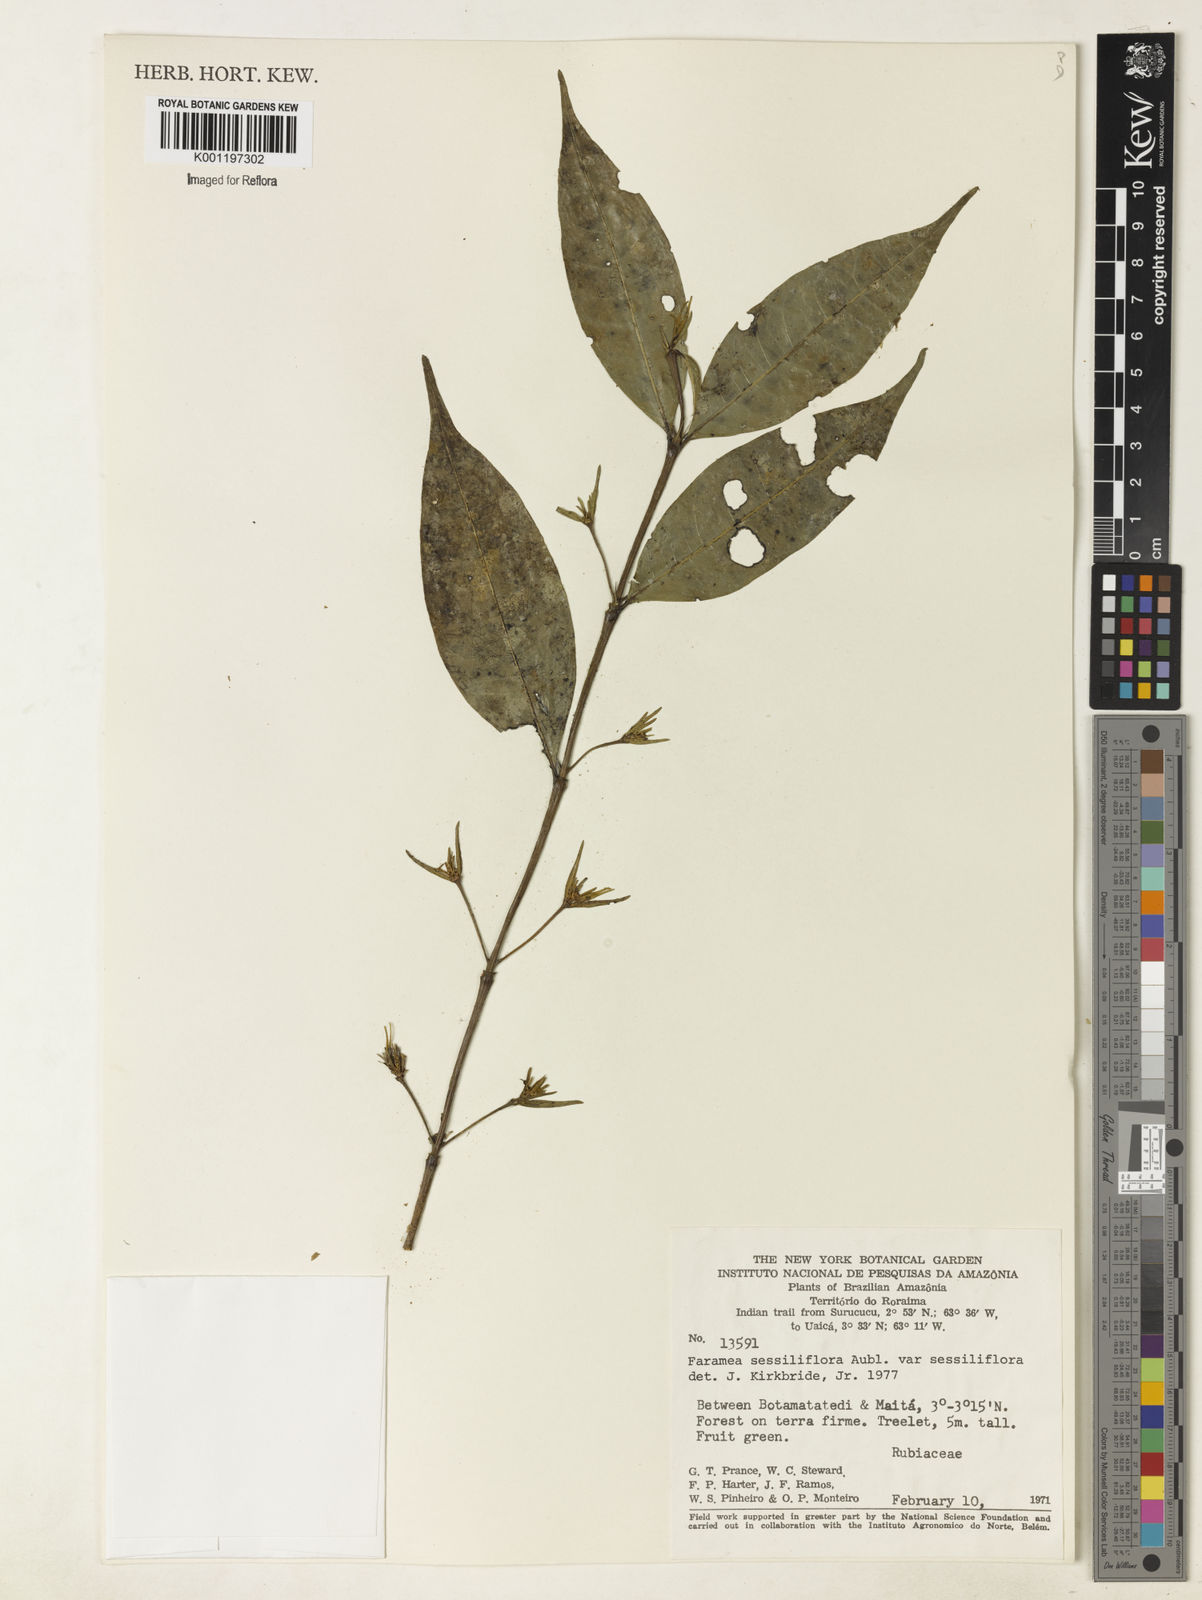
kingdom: Plantae
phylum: Tracheophyta
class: Magnoliopsida
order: Gentianales
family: Rubiaceae
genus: Faramea
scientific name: Faramea sessiliflora
